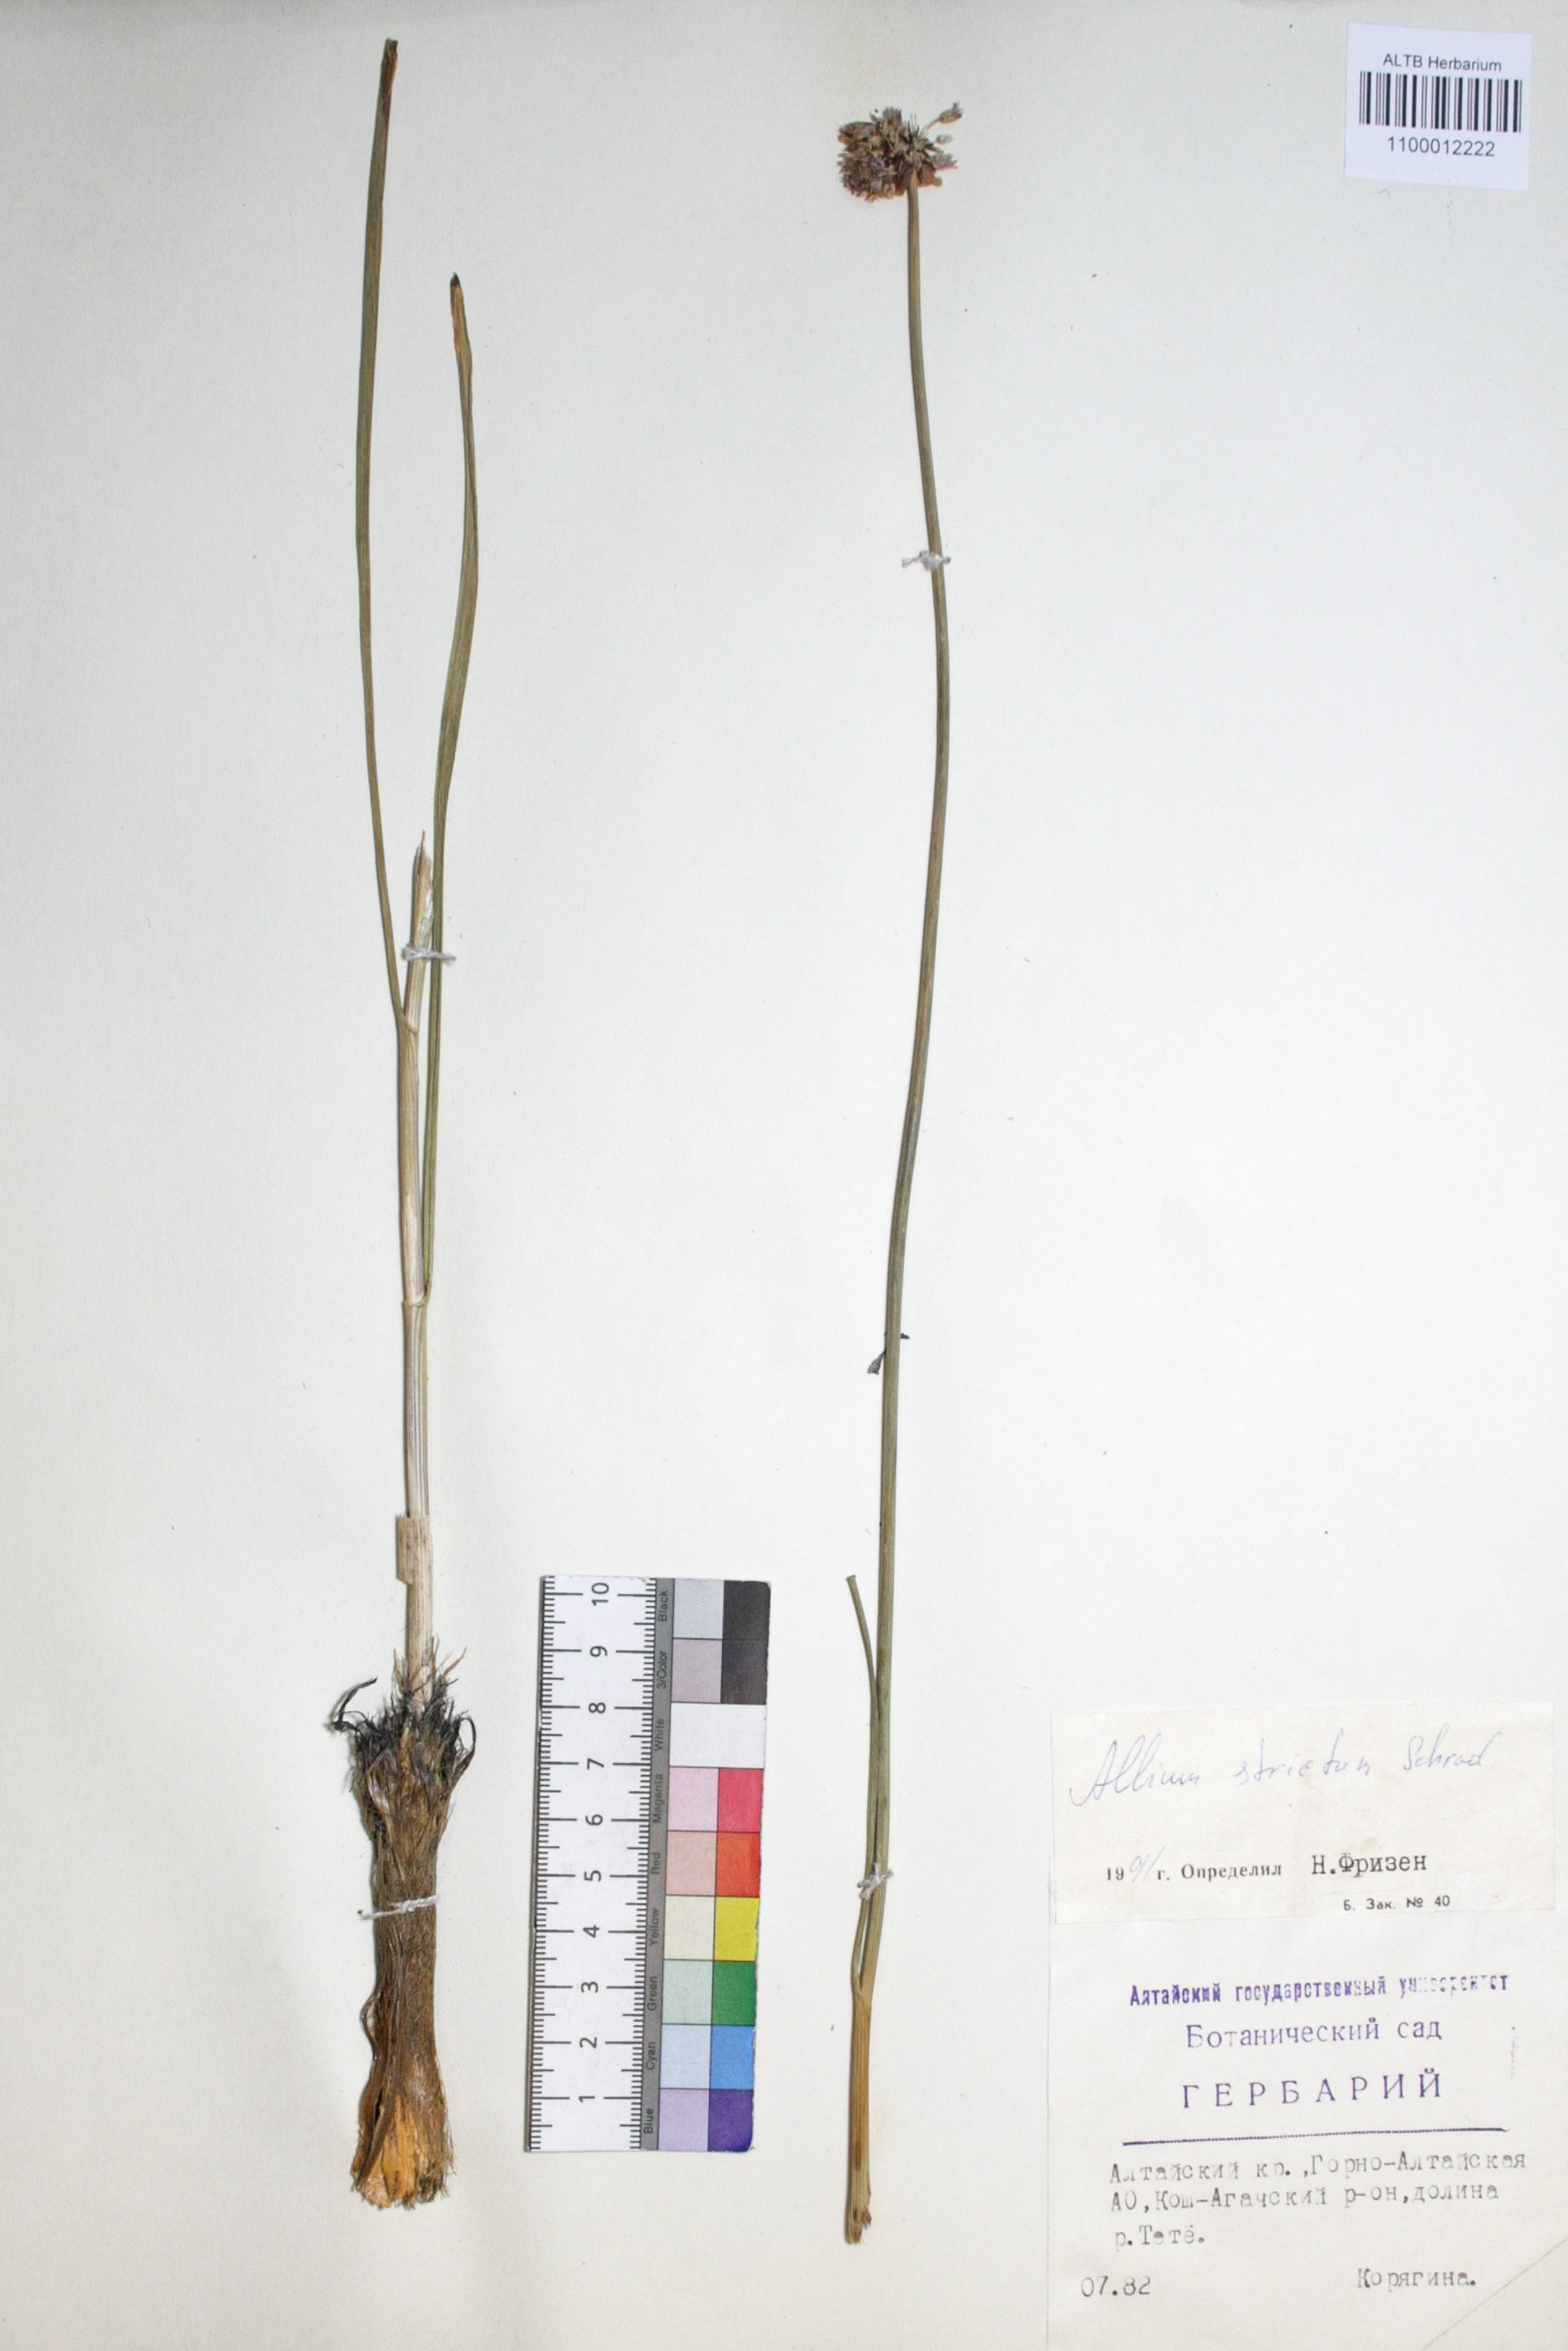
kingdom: Plantae
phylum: Tracheophyta
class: Liliopsida
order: Asparagales
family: Amaryllidaceae
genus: Allium
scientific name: Allium strictum
